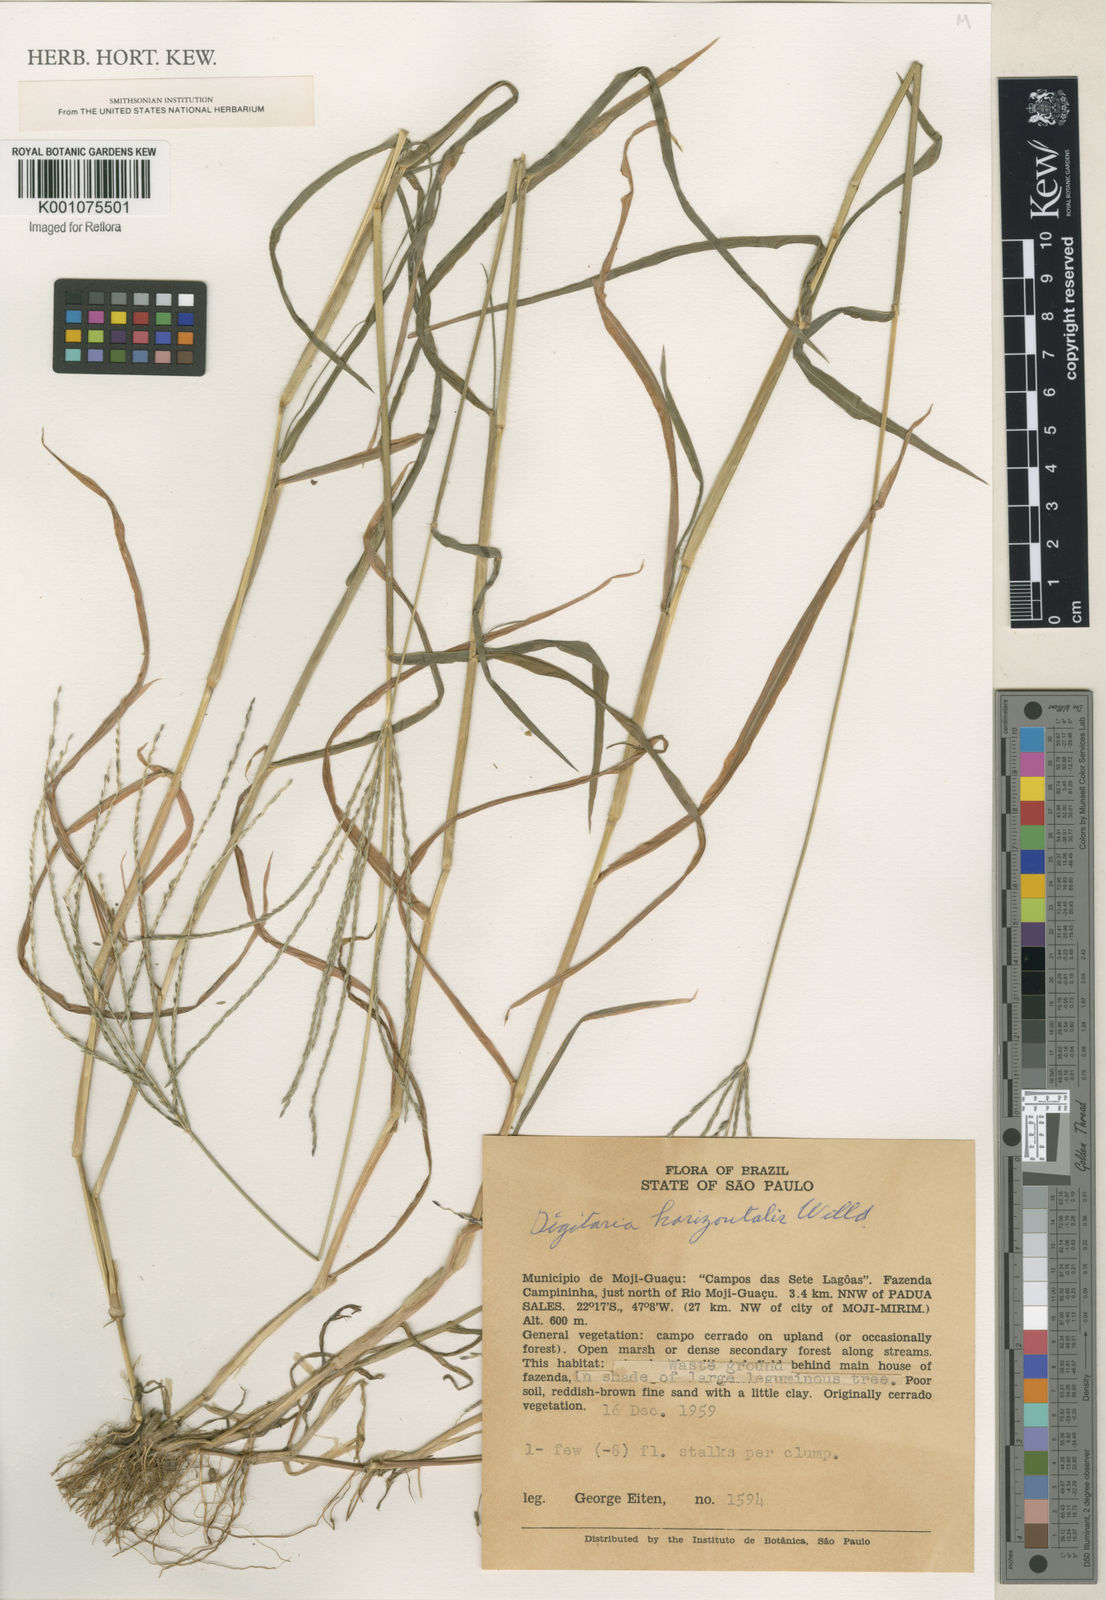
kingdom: Plantae
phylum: Tracheophyta
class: Liliopsida
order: Poales
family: Poaceae
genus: Digitaria
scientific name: Digitaria horizontalis
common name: Jamaican crabgrass
